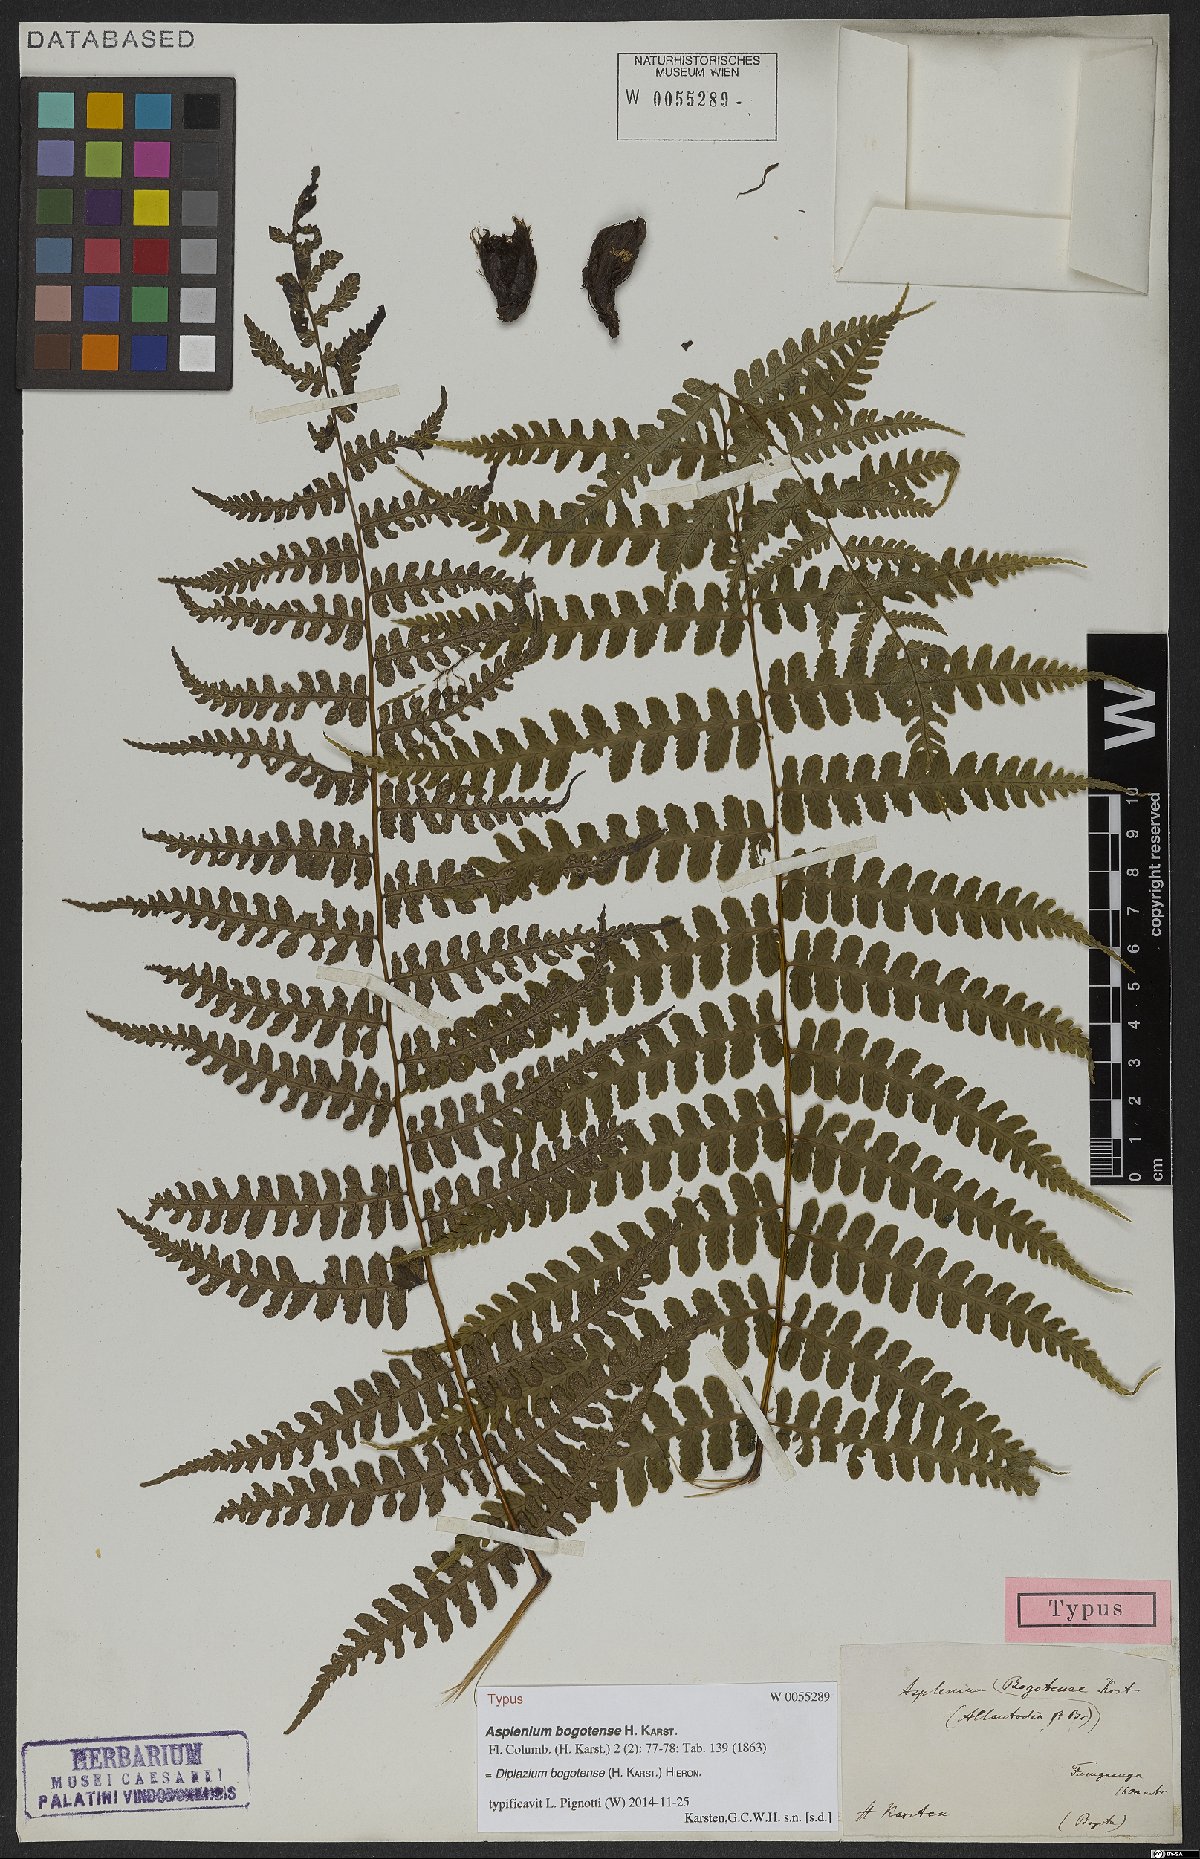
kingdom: Plantae
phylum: Tracheophyta
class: Polypodiopsida
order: Polypodiales
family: Athyriaceae
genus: Diplazium
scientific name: Diplazium bogotense
